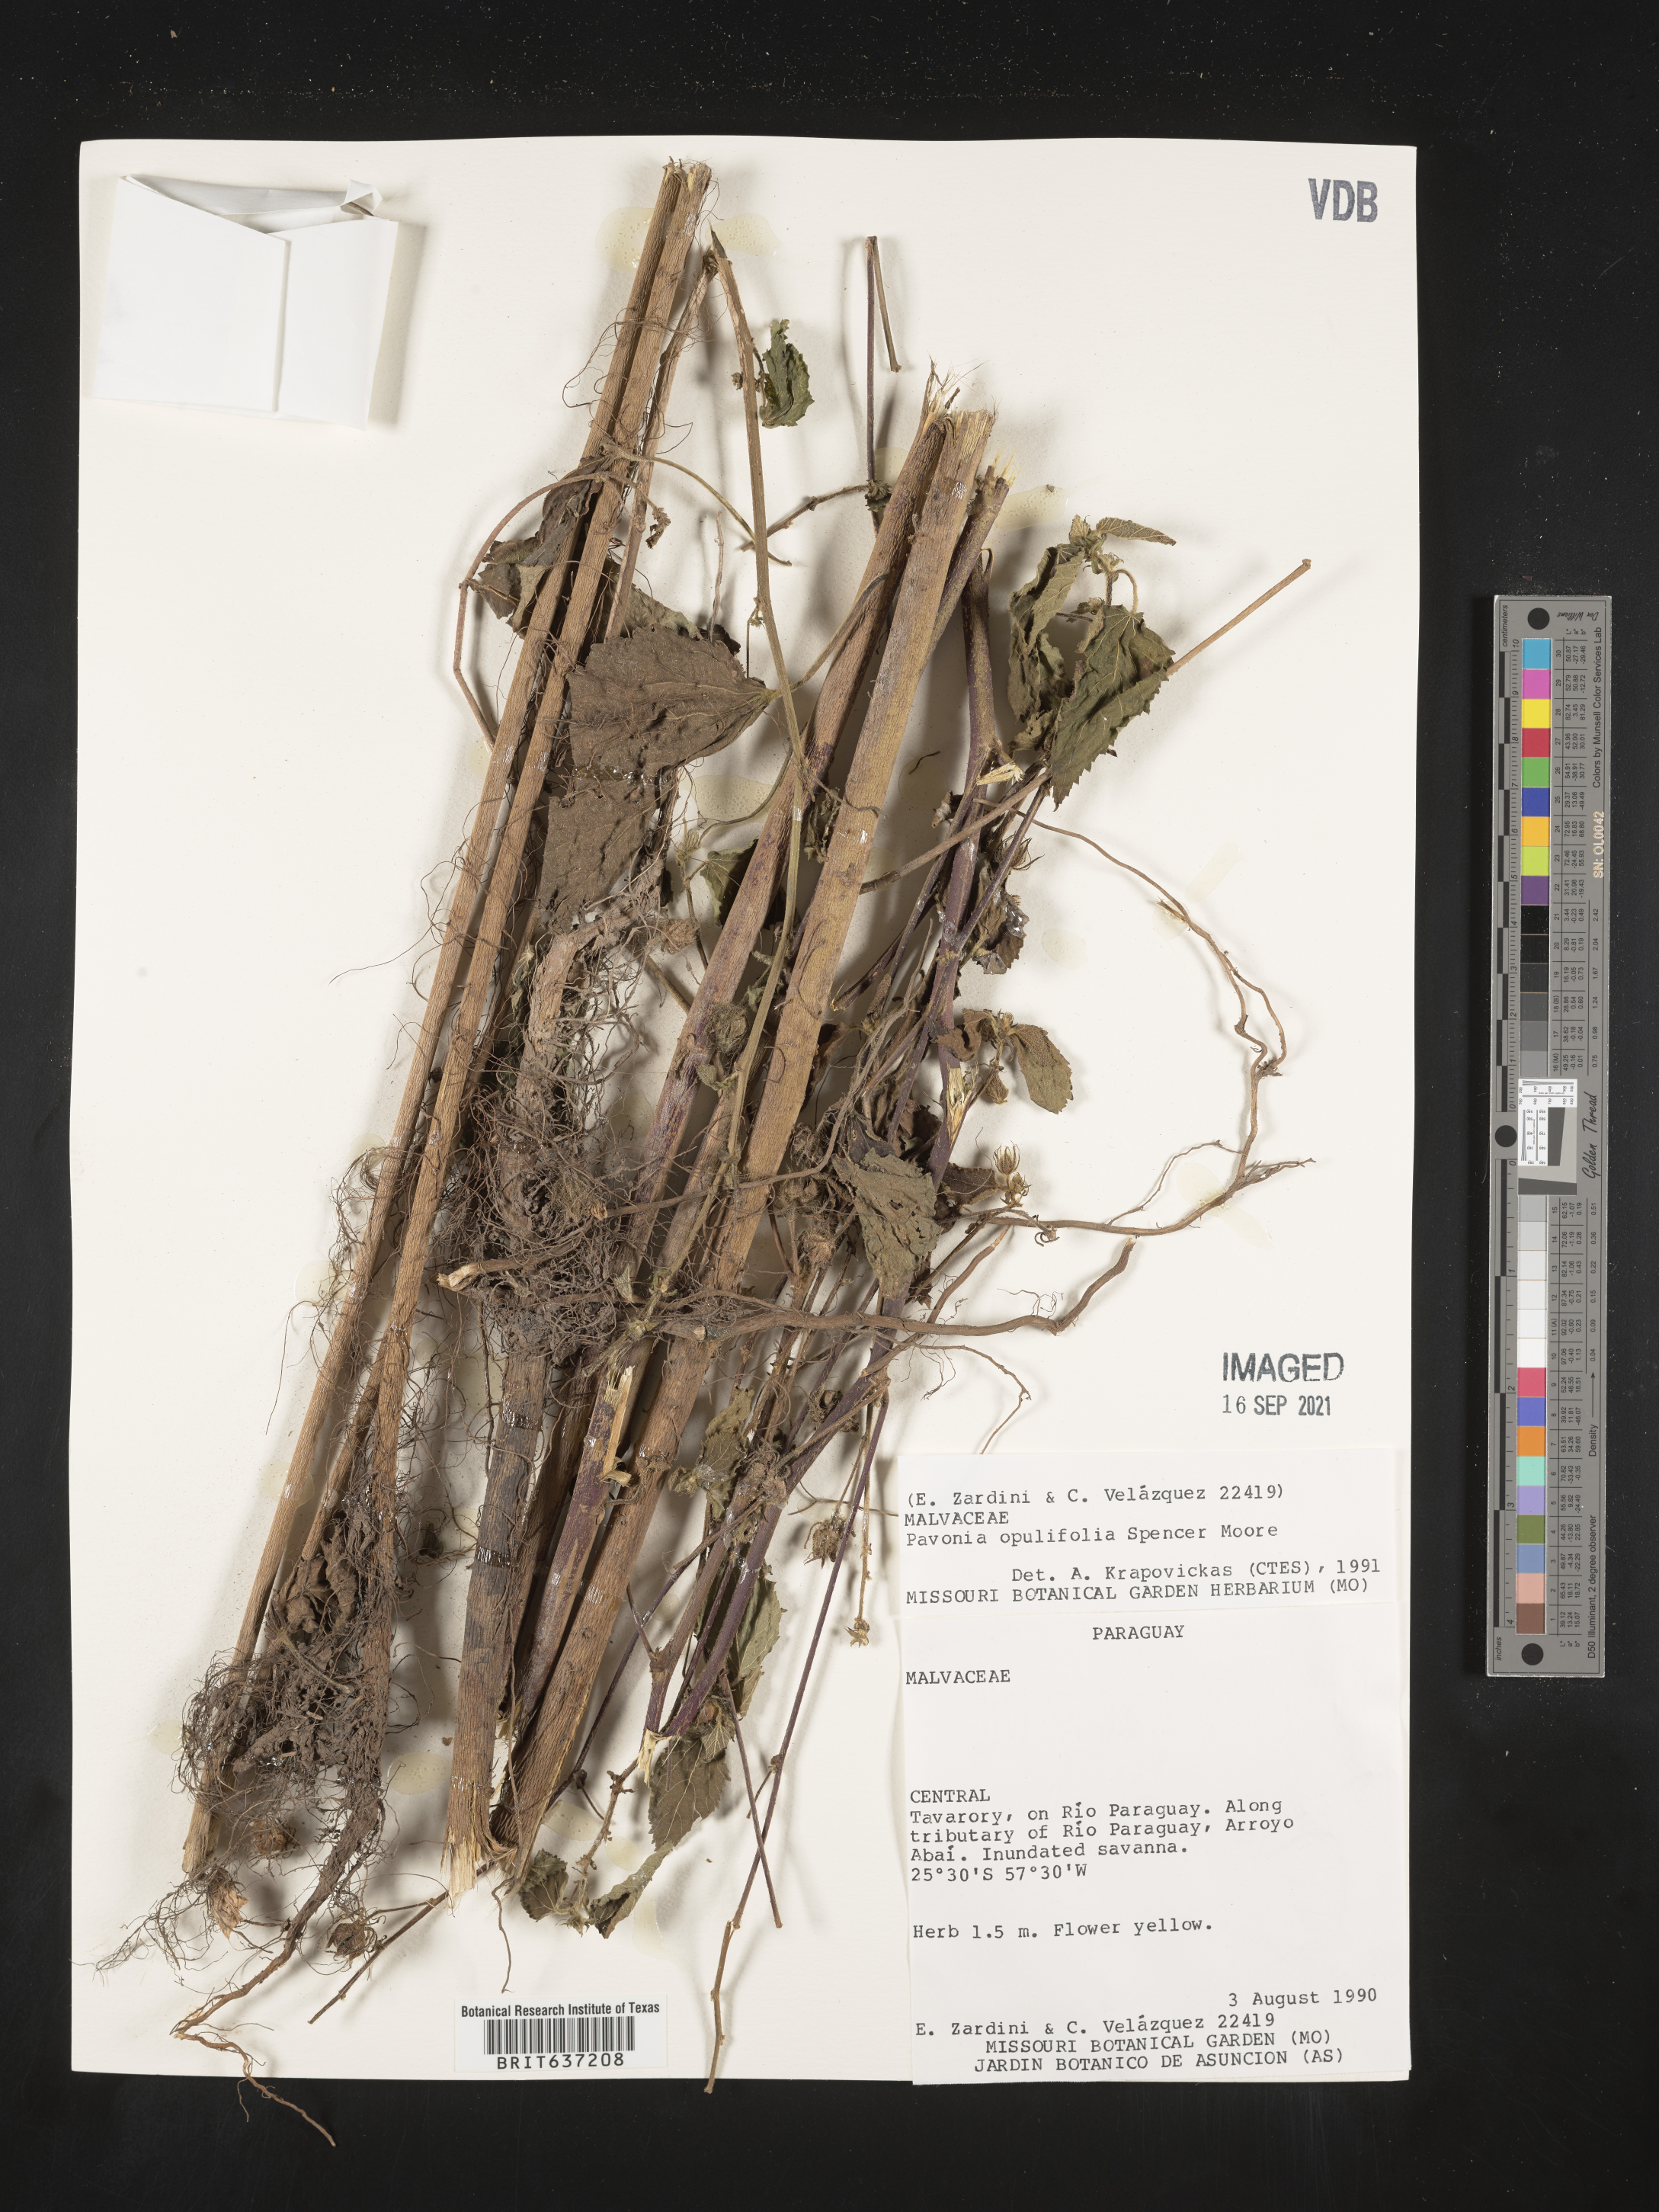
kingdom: Plantae
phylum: Tracheophyta
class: Magnoliopsida
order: Malvales
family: Malvaceae
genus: Pavonia
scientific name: Pavonia
